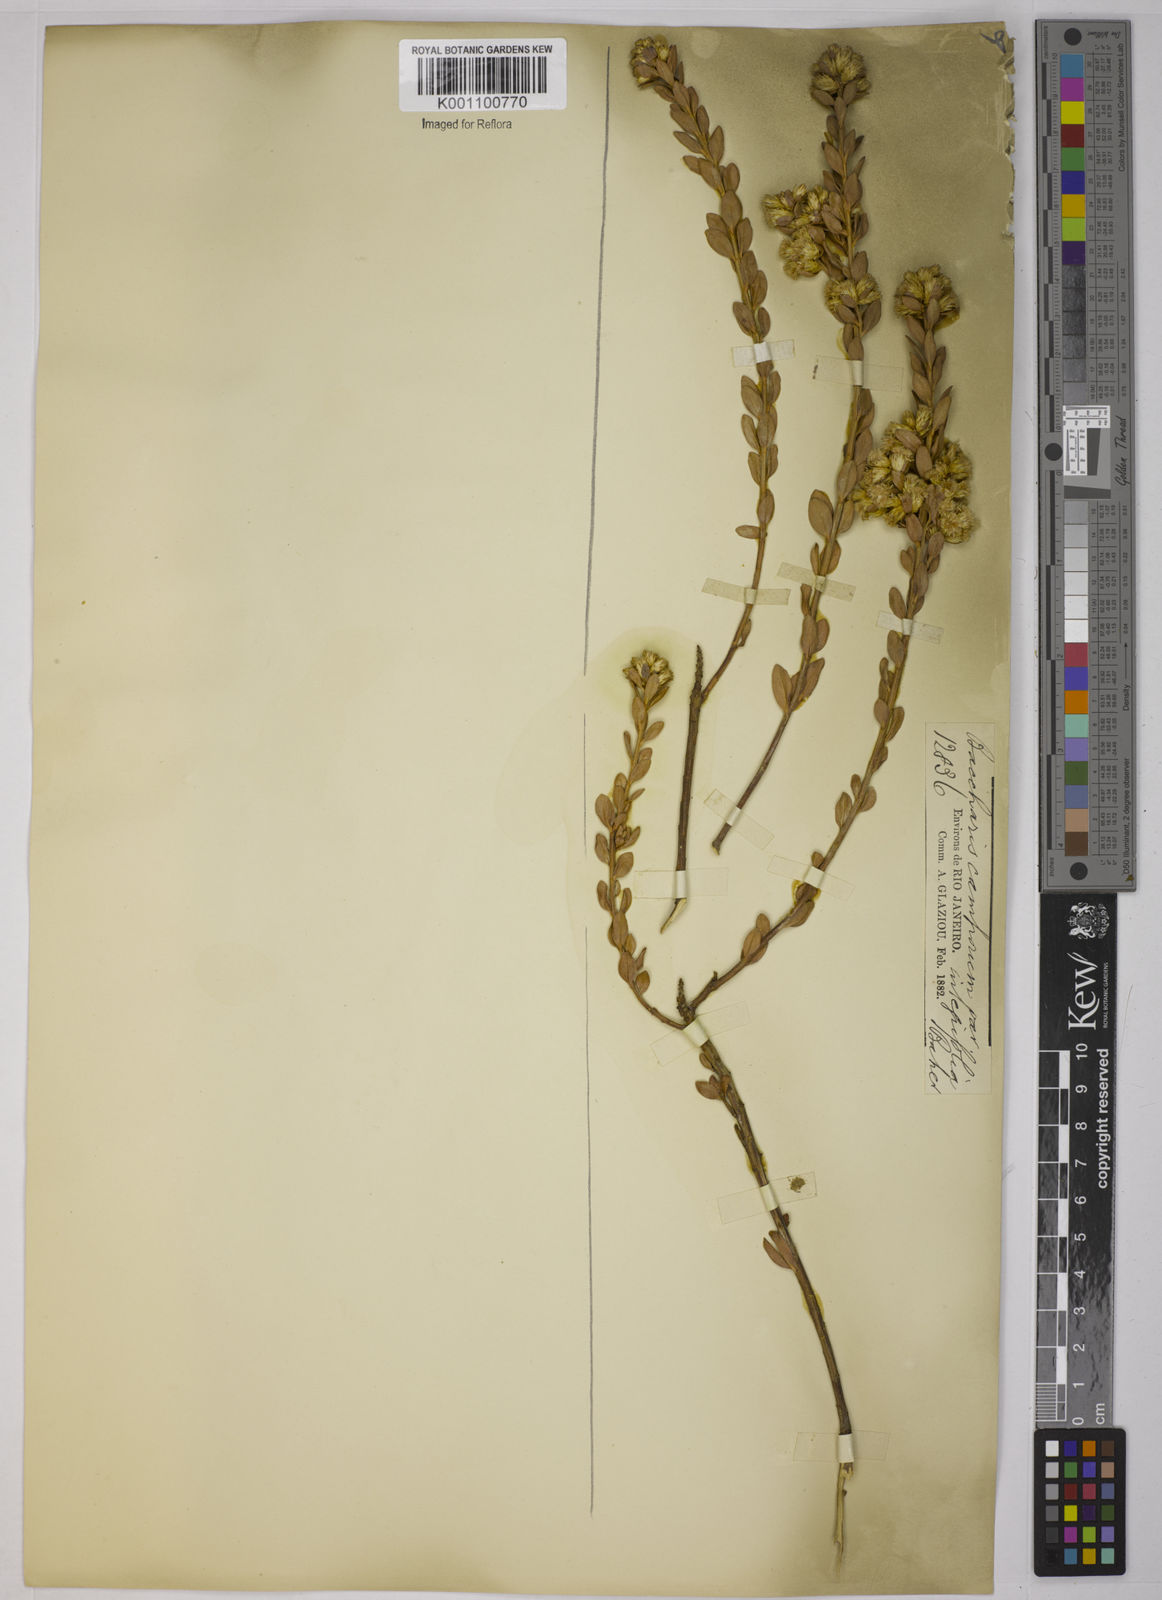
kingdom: Plantae
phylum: Tracheophyta
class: Magnoliopsida
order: Asterales
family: Asteraceae
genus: Baccharis
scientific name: Baccharis camporum
